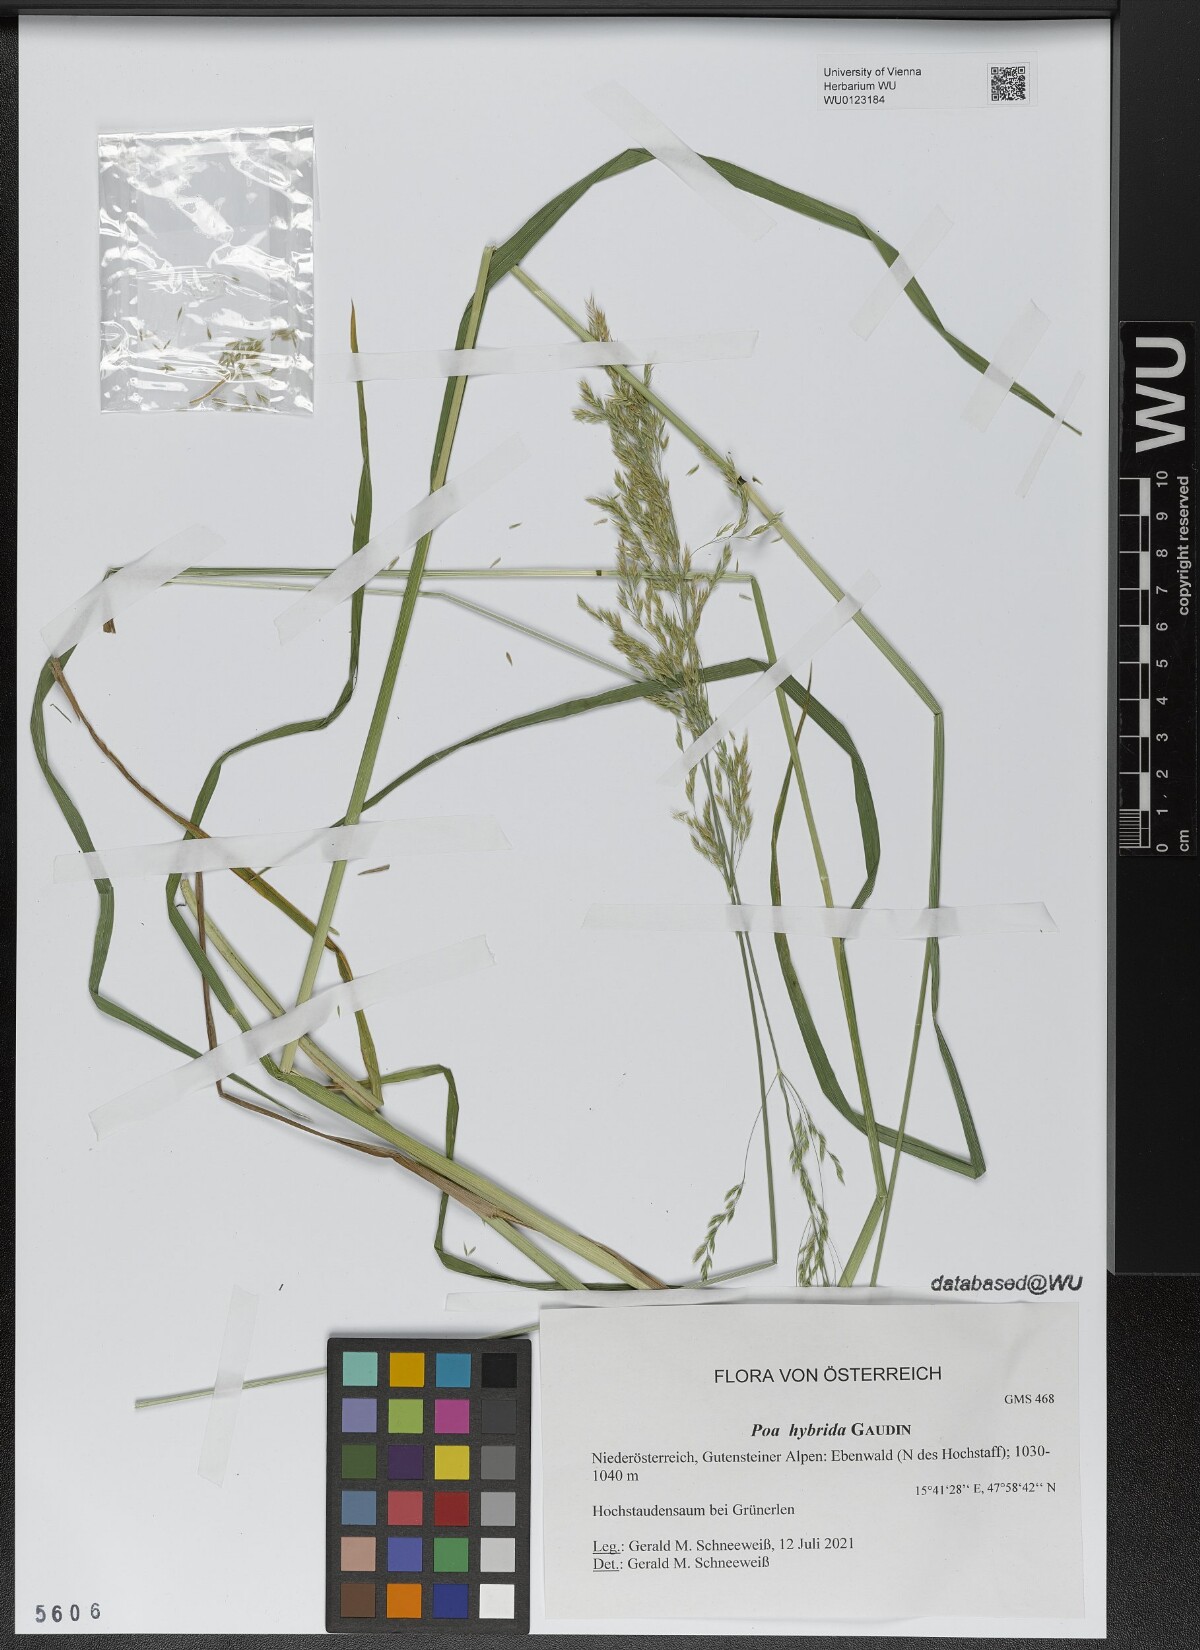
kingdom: Plantae
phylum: Tracheophyta
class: Liliopsida
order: Poales
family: Poaceae
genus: Poa
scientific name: Poa hybrida
